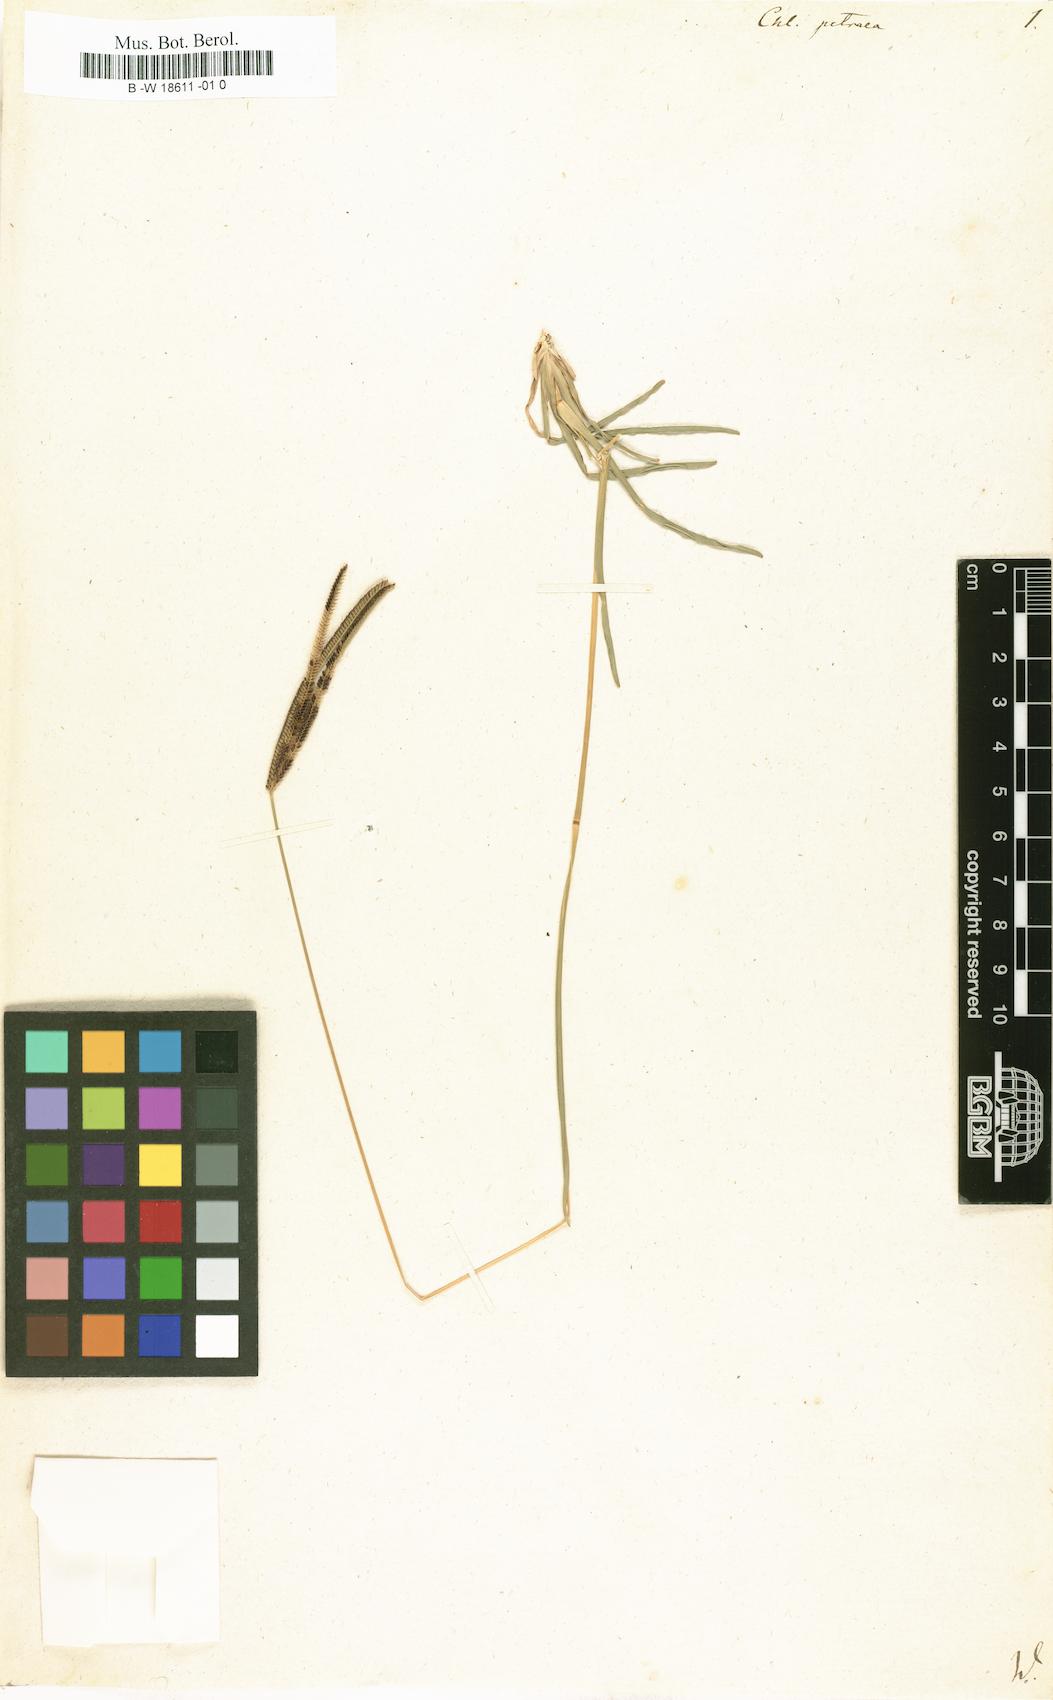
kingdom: Plantae
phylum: Tracheophyta
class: Liliopsida
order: Poales
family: Poaceae
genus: Eustachys
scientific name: Eustachys petraea
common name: Pinewoods fingergrass
